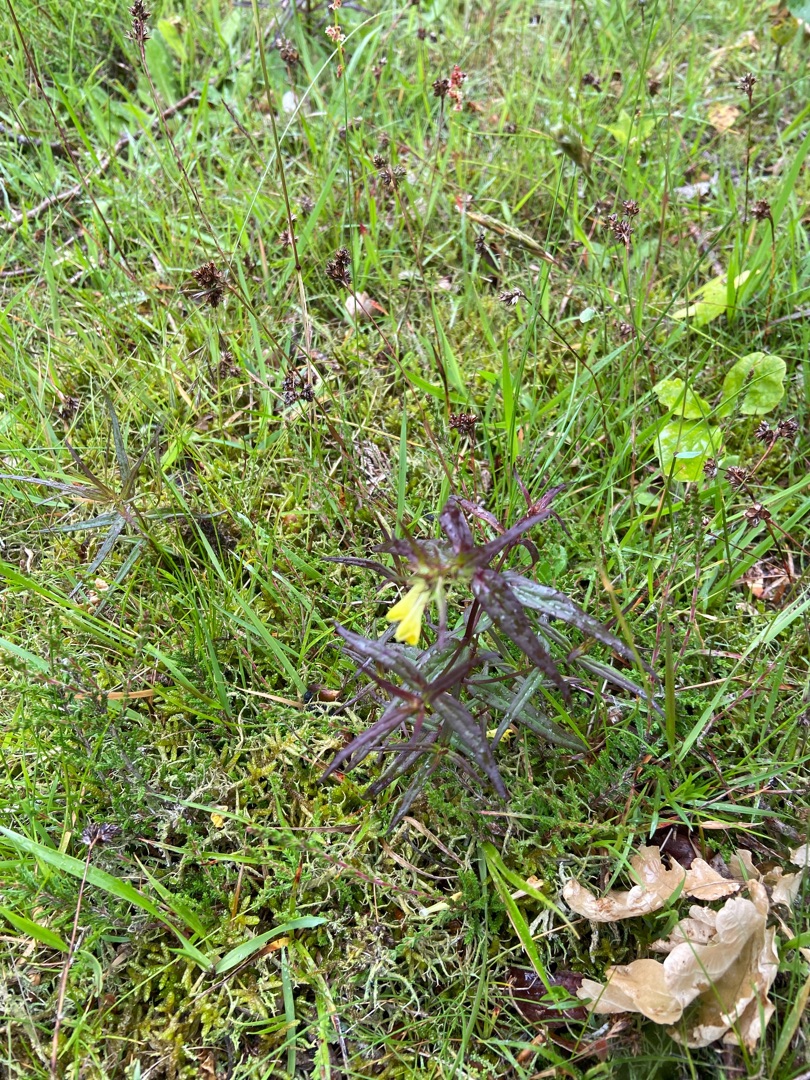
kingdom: Plantae
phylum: Tracheophyta
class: Magnoliopsida
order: Lamiales
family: Orobanchaceae
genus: Melampyrum
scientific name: Melampyrum pratense
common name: Almindelig kohvede
